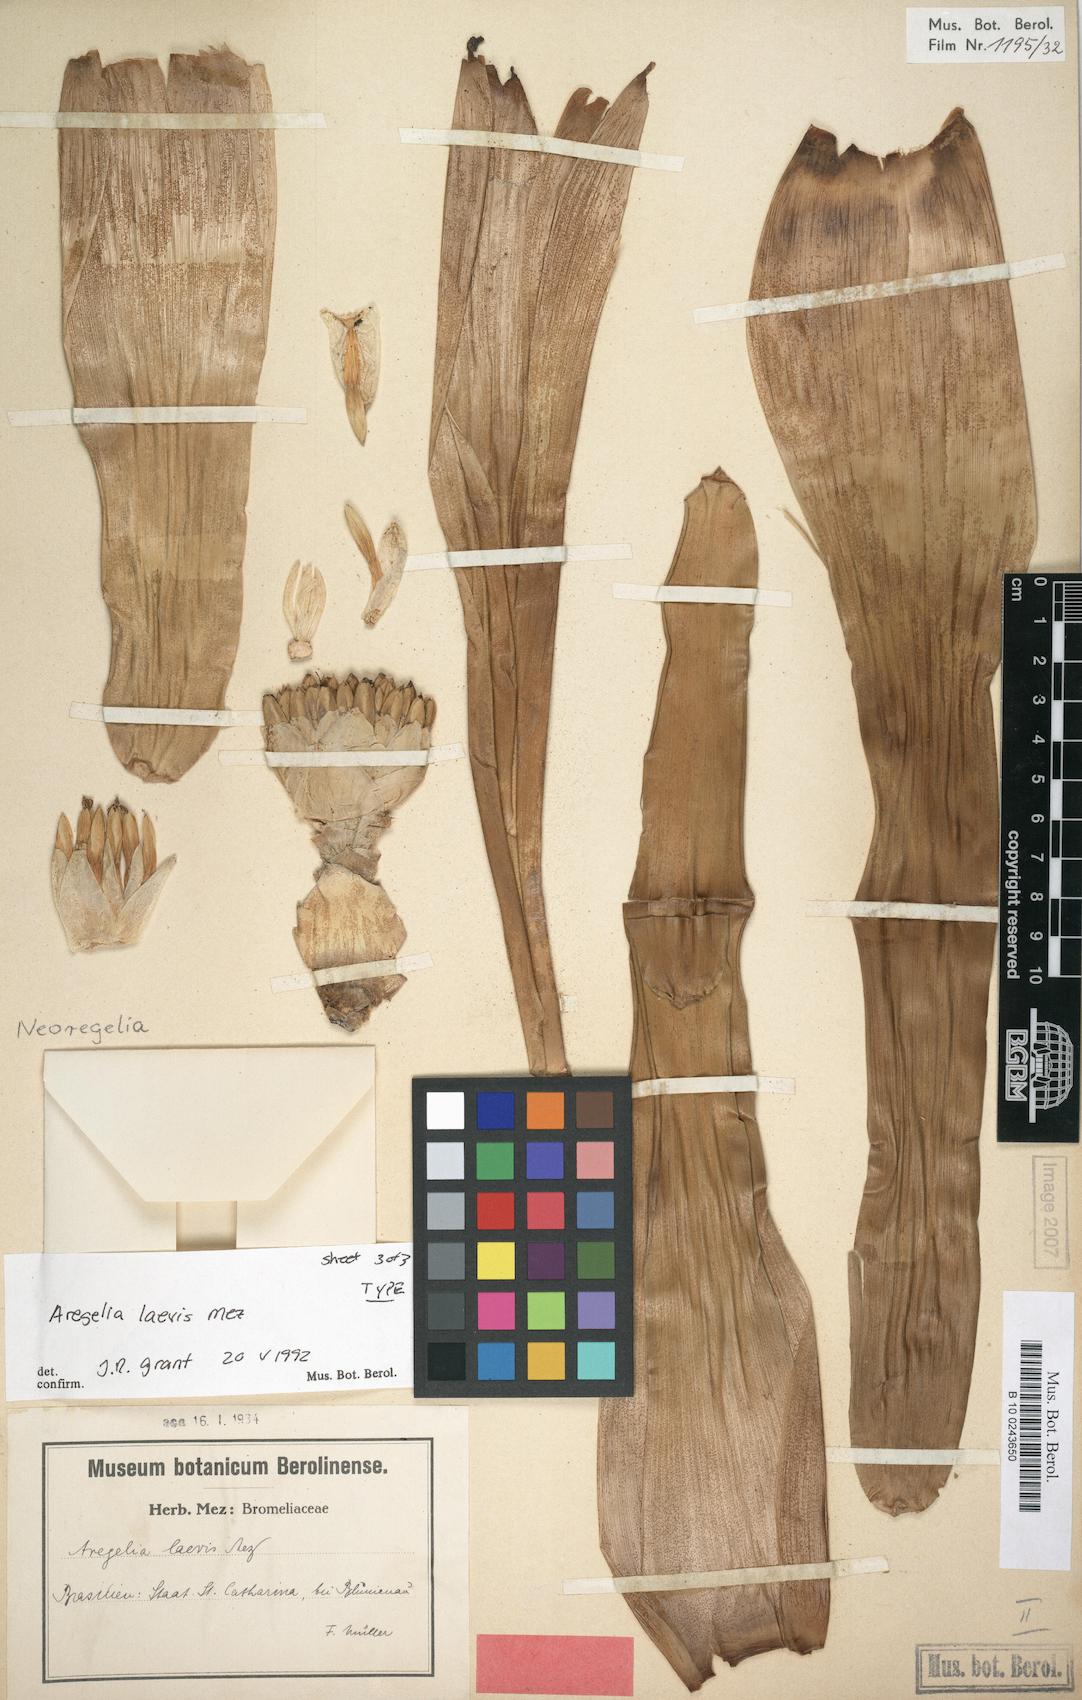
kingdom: Plantae
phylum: Tracheophyta
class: Liliopsida
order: Poales
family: Bromeliaceae
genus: Neoregelia
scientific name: Neoregelia laevis
